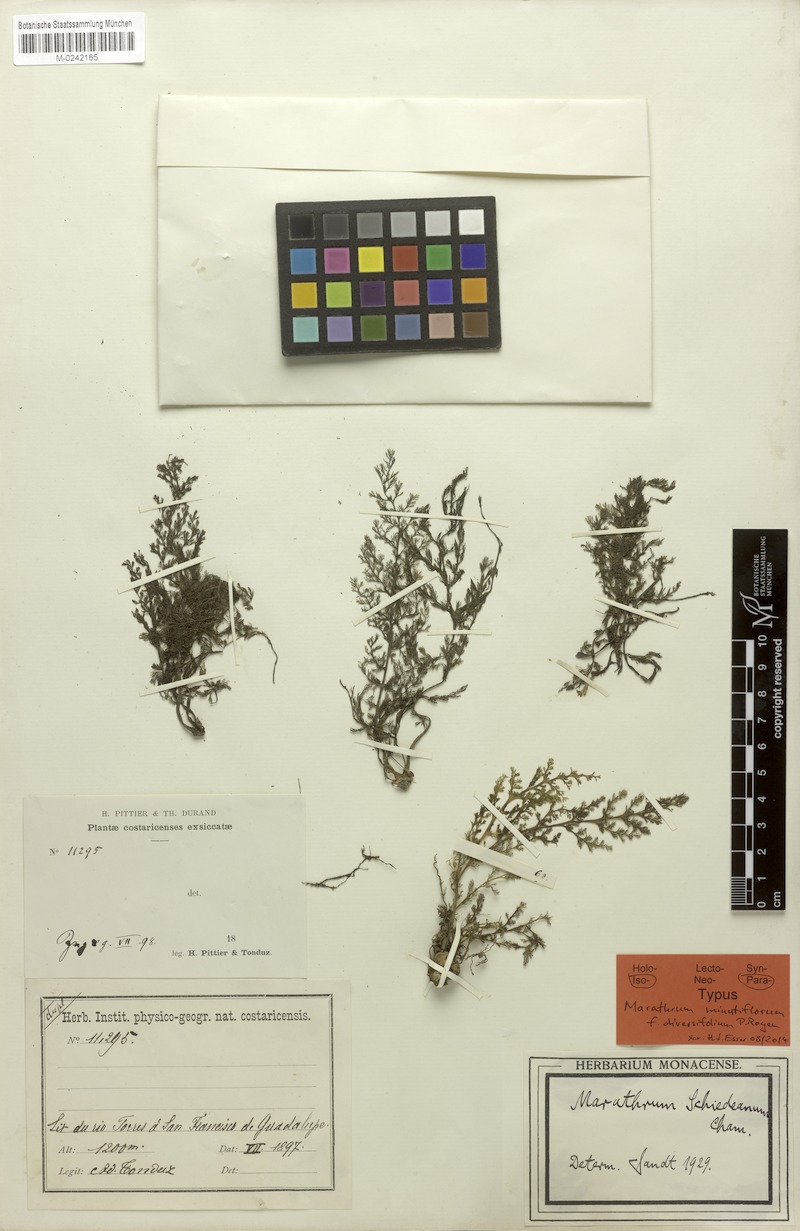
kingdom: Plantae
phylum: Tracheophyta
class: Magnoliopsida
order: Malpighiales
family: Podostemaceae
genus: Marathrum
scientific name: Marathrum foeniculaceum
